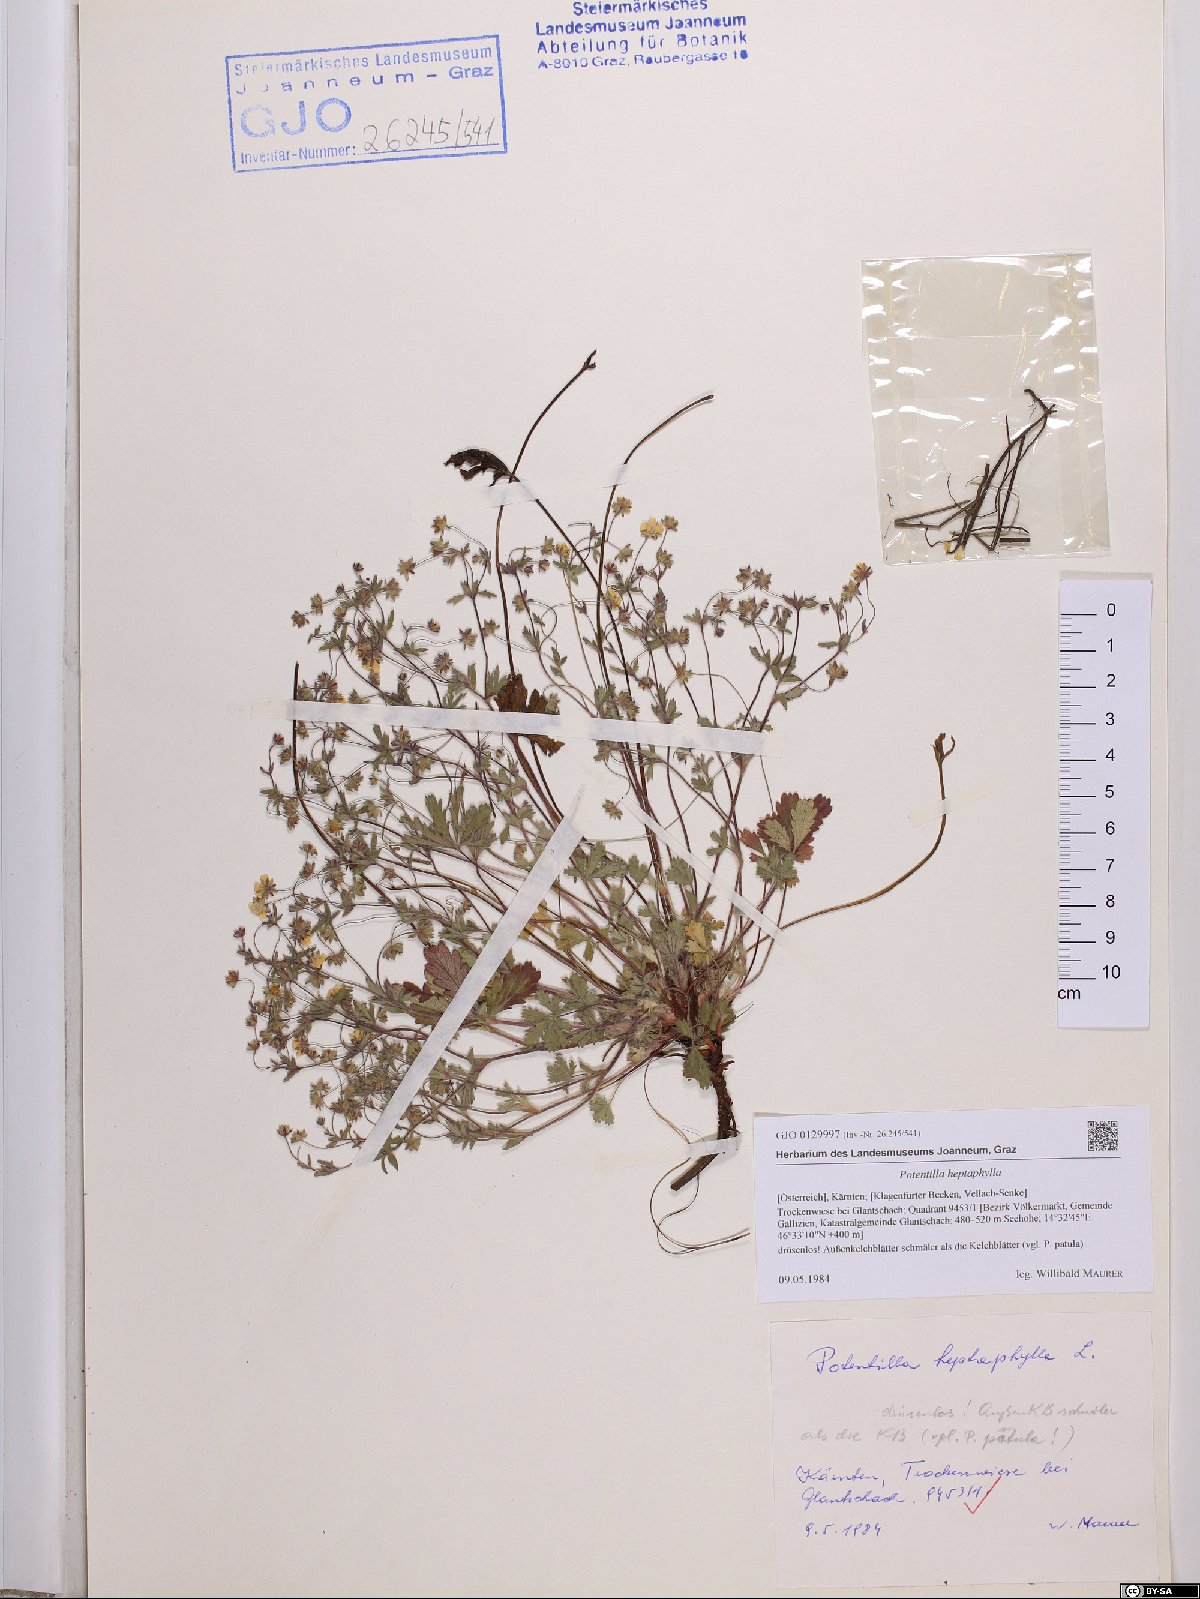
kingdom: Plantae
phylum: Tracheophyta
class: Magnoliopsida
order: Rosales
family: Rosaceae
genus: Potentilla
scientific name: Potentilla heptaphylla
